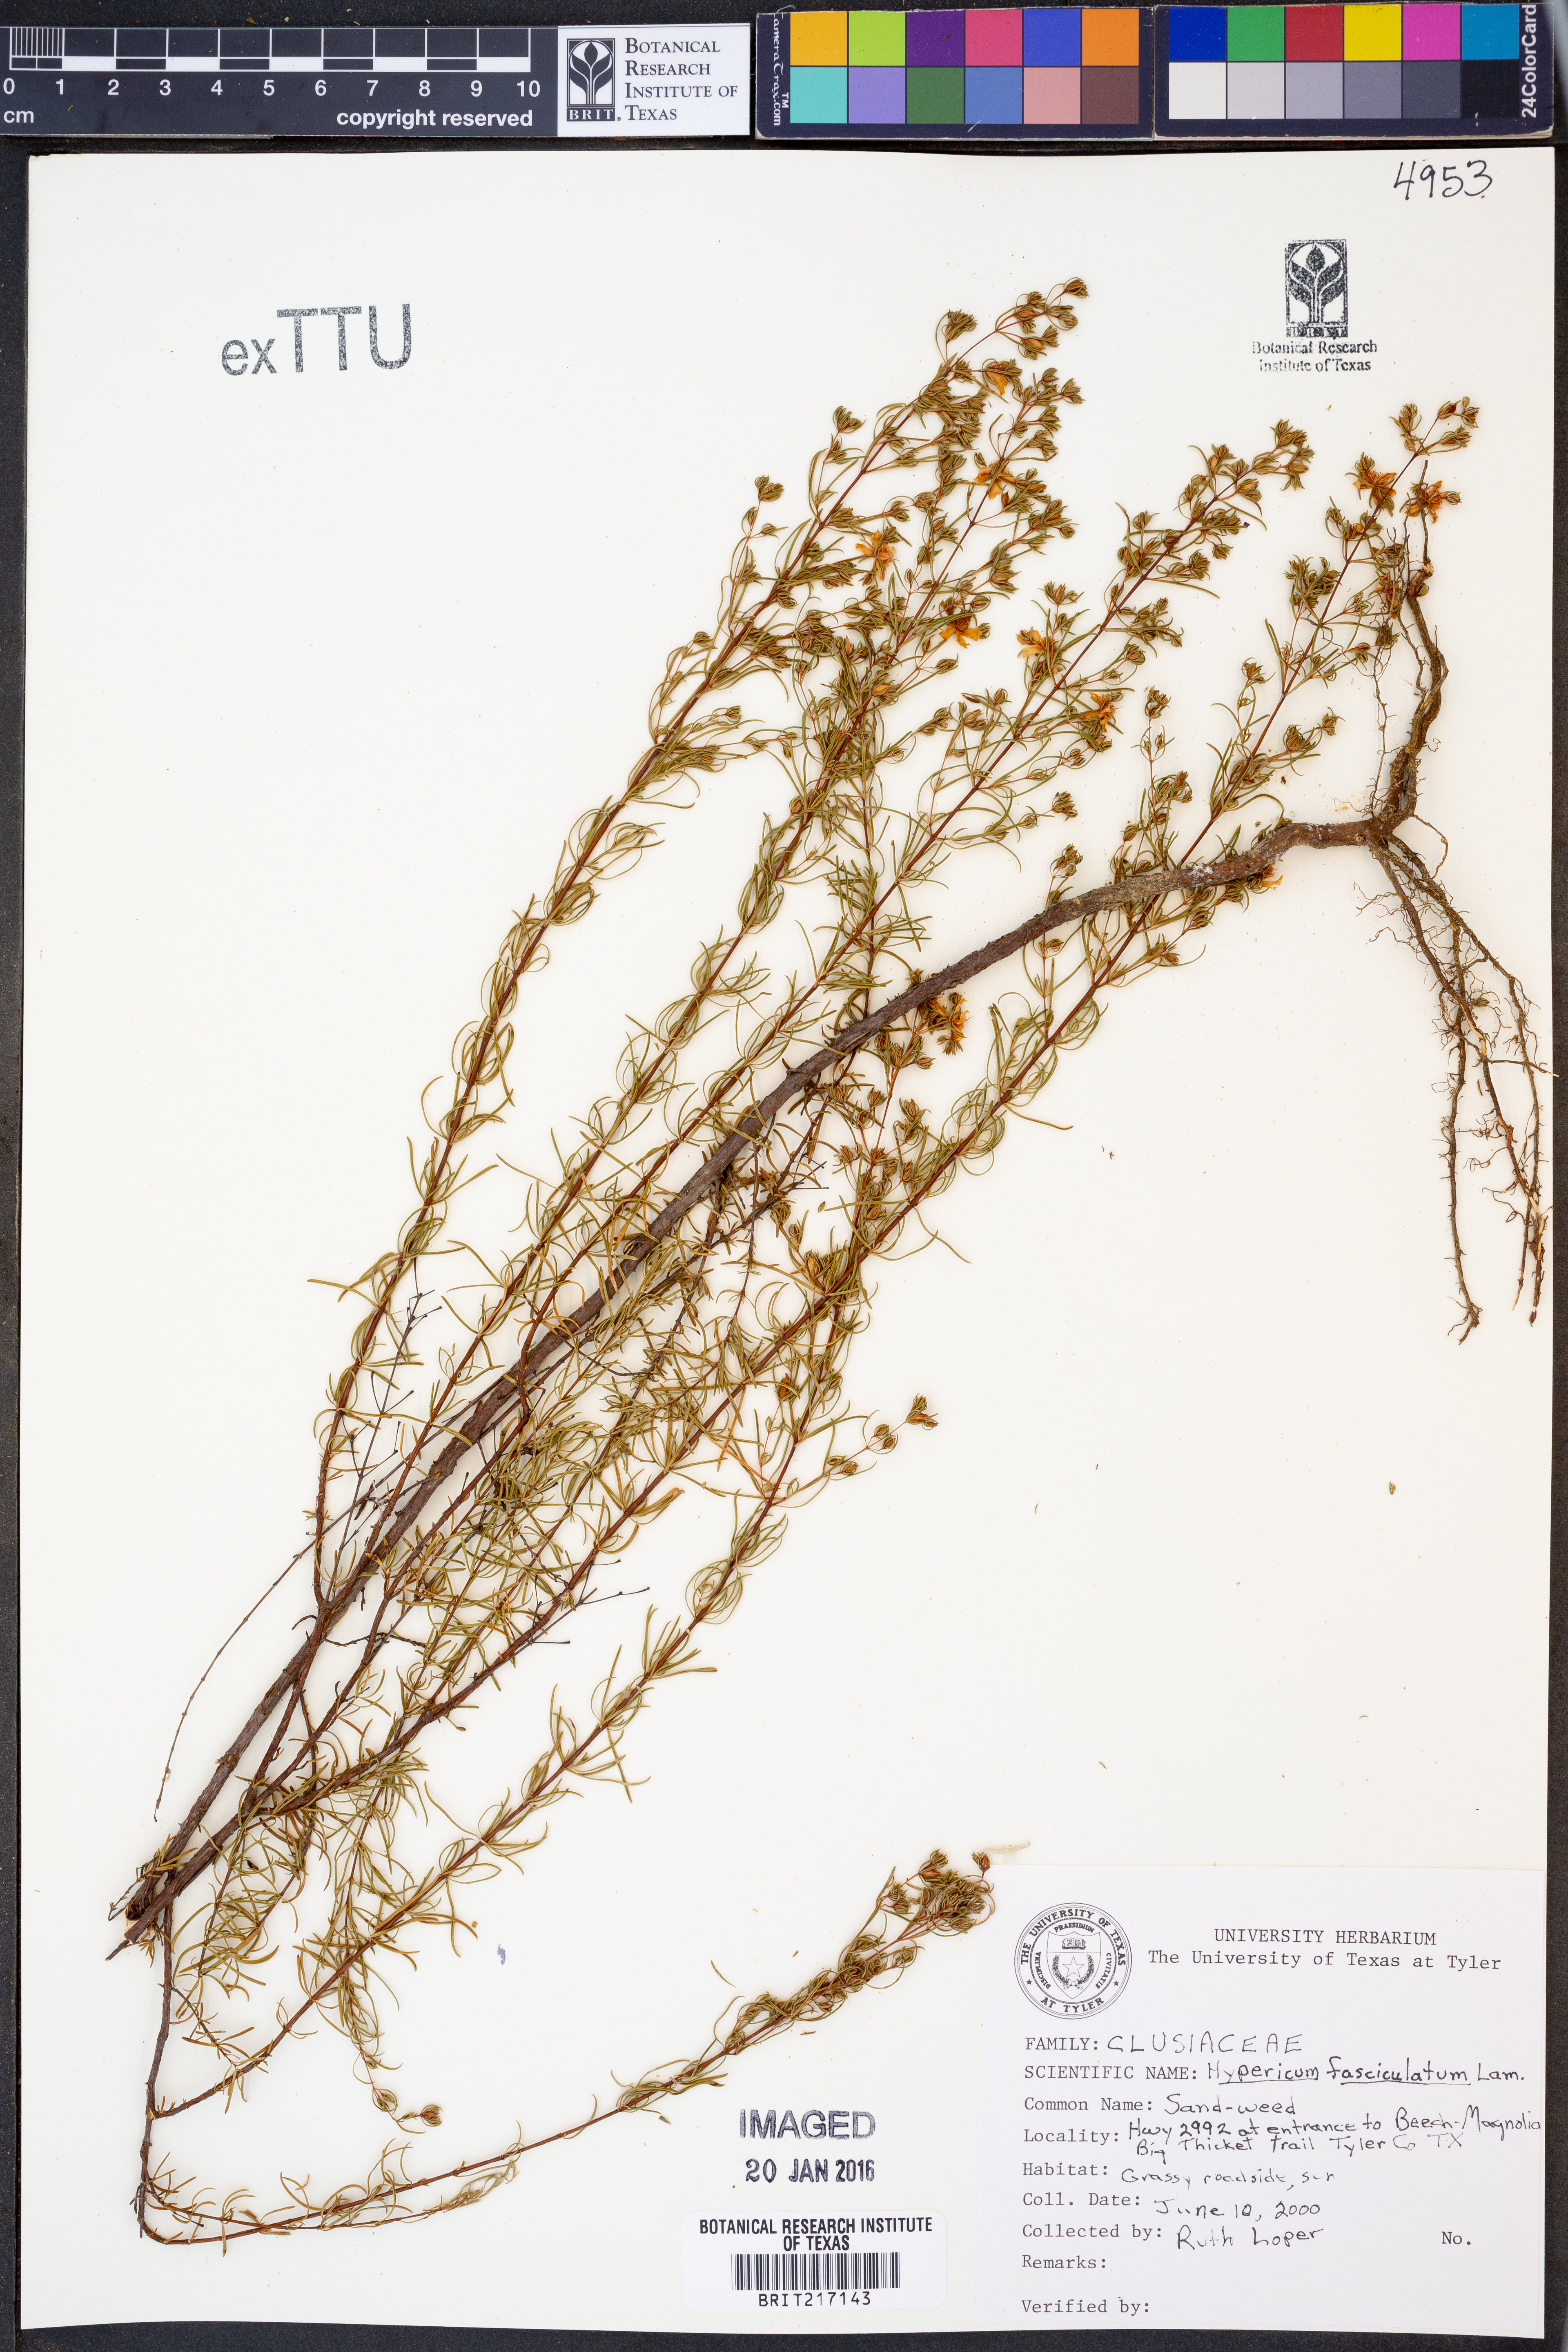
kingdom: Plantae
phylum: Tracheophyta
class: Magnoliopsida
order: Malpighiales
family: Hypericaceae
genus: Hypericum
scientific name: Hypericum fasciculatum
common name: Peelbark st. john's wort
